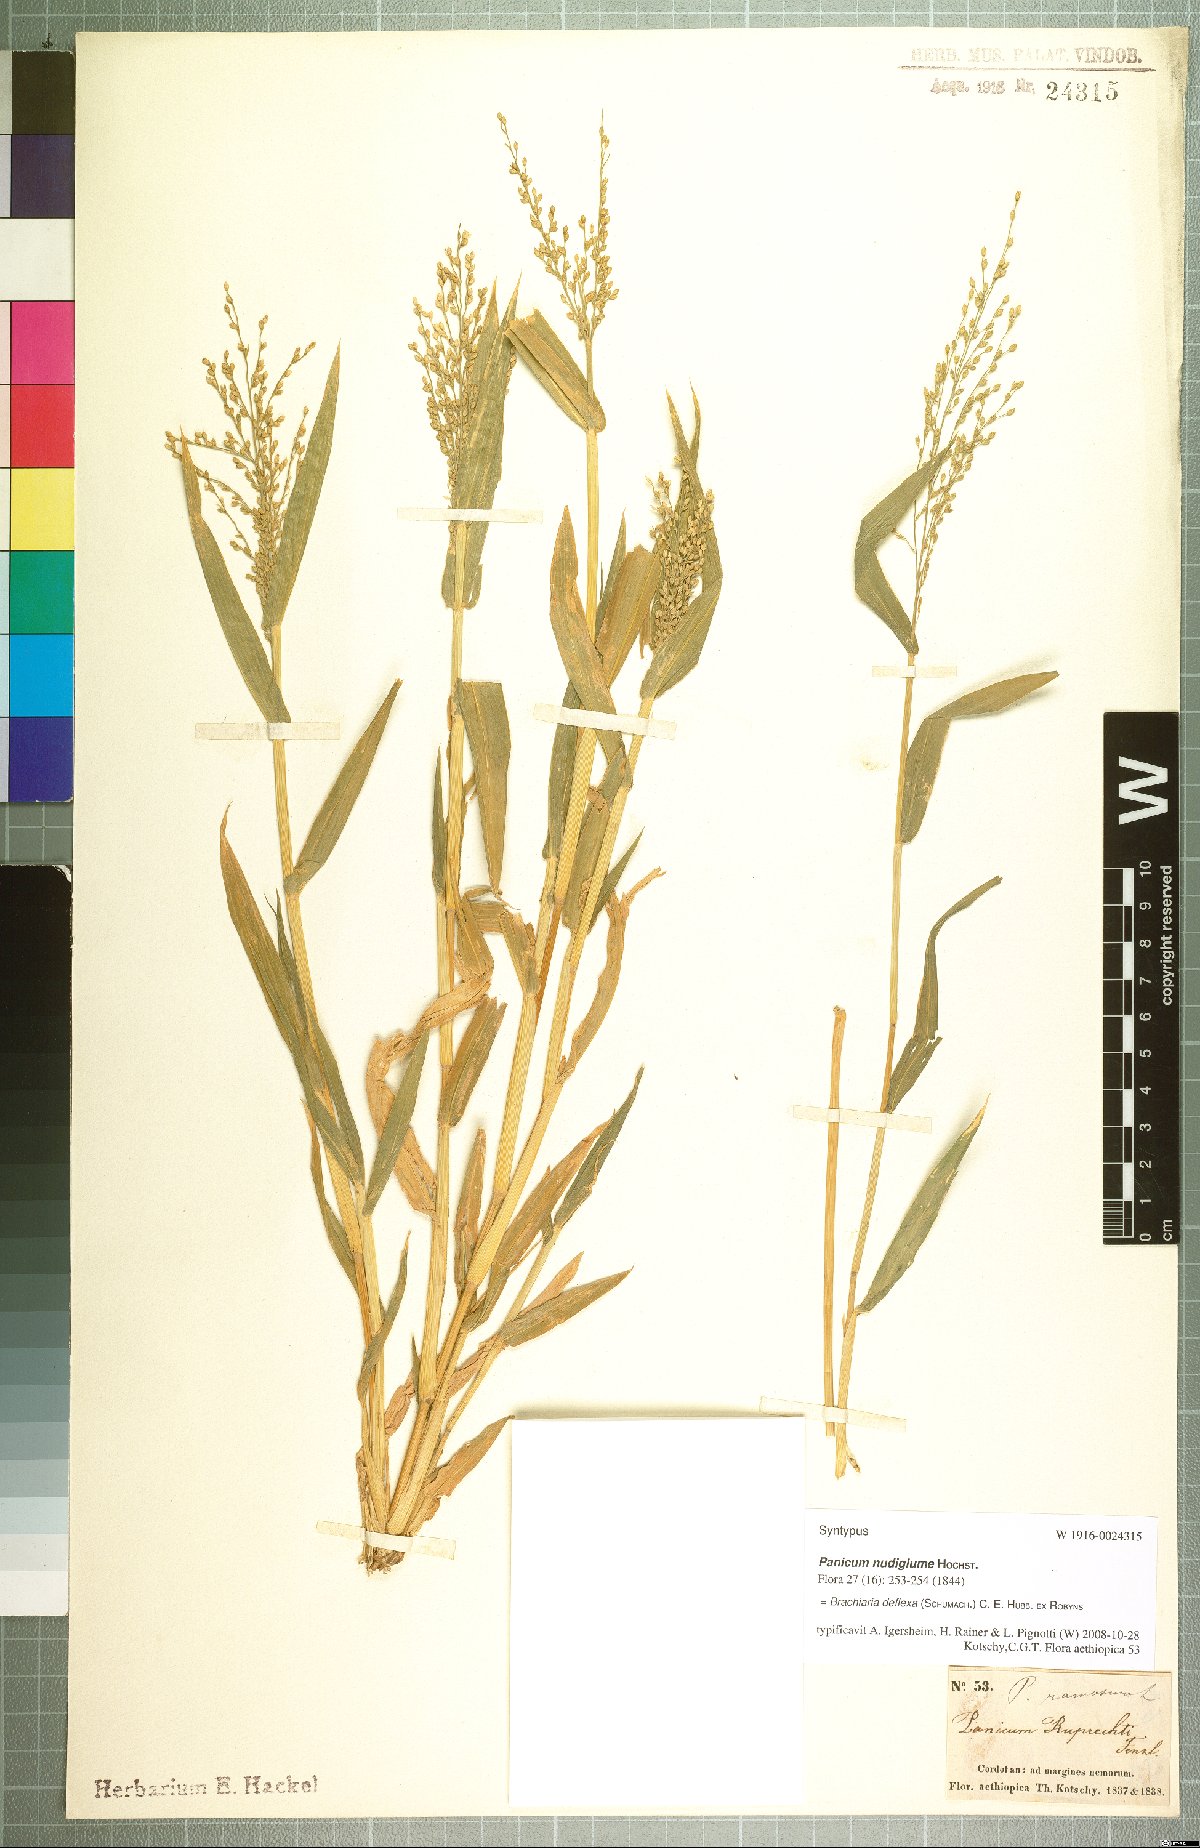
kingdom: Plantae
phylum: Tracheophyta
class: Liliopsida
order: Poales
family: Poaceae
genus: Urochloa
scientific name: Urochloa deflexa
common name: Guinea millet
